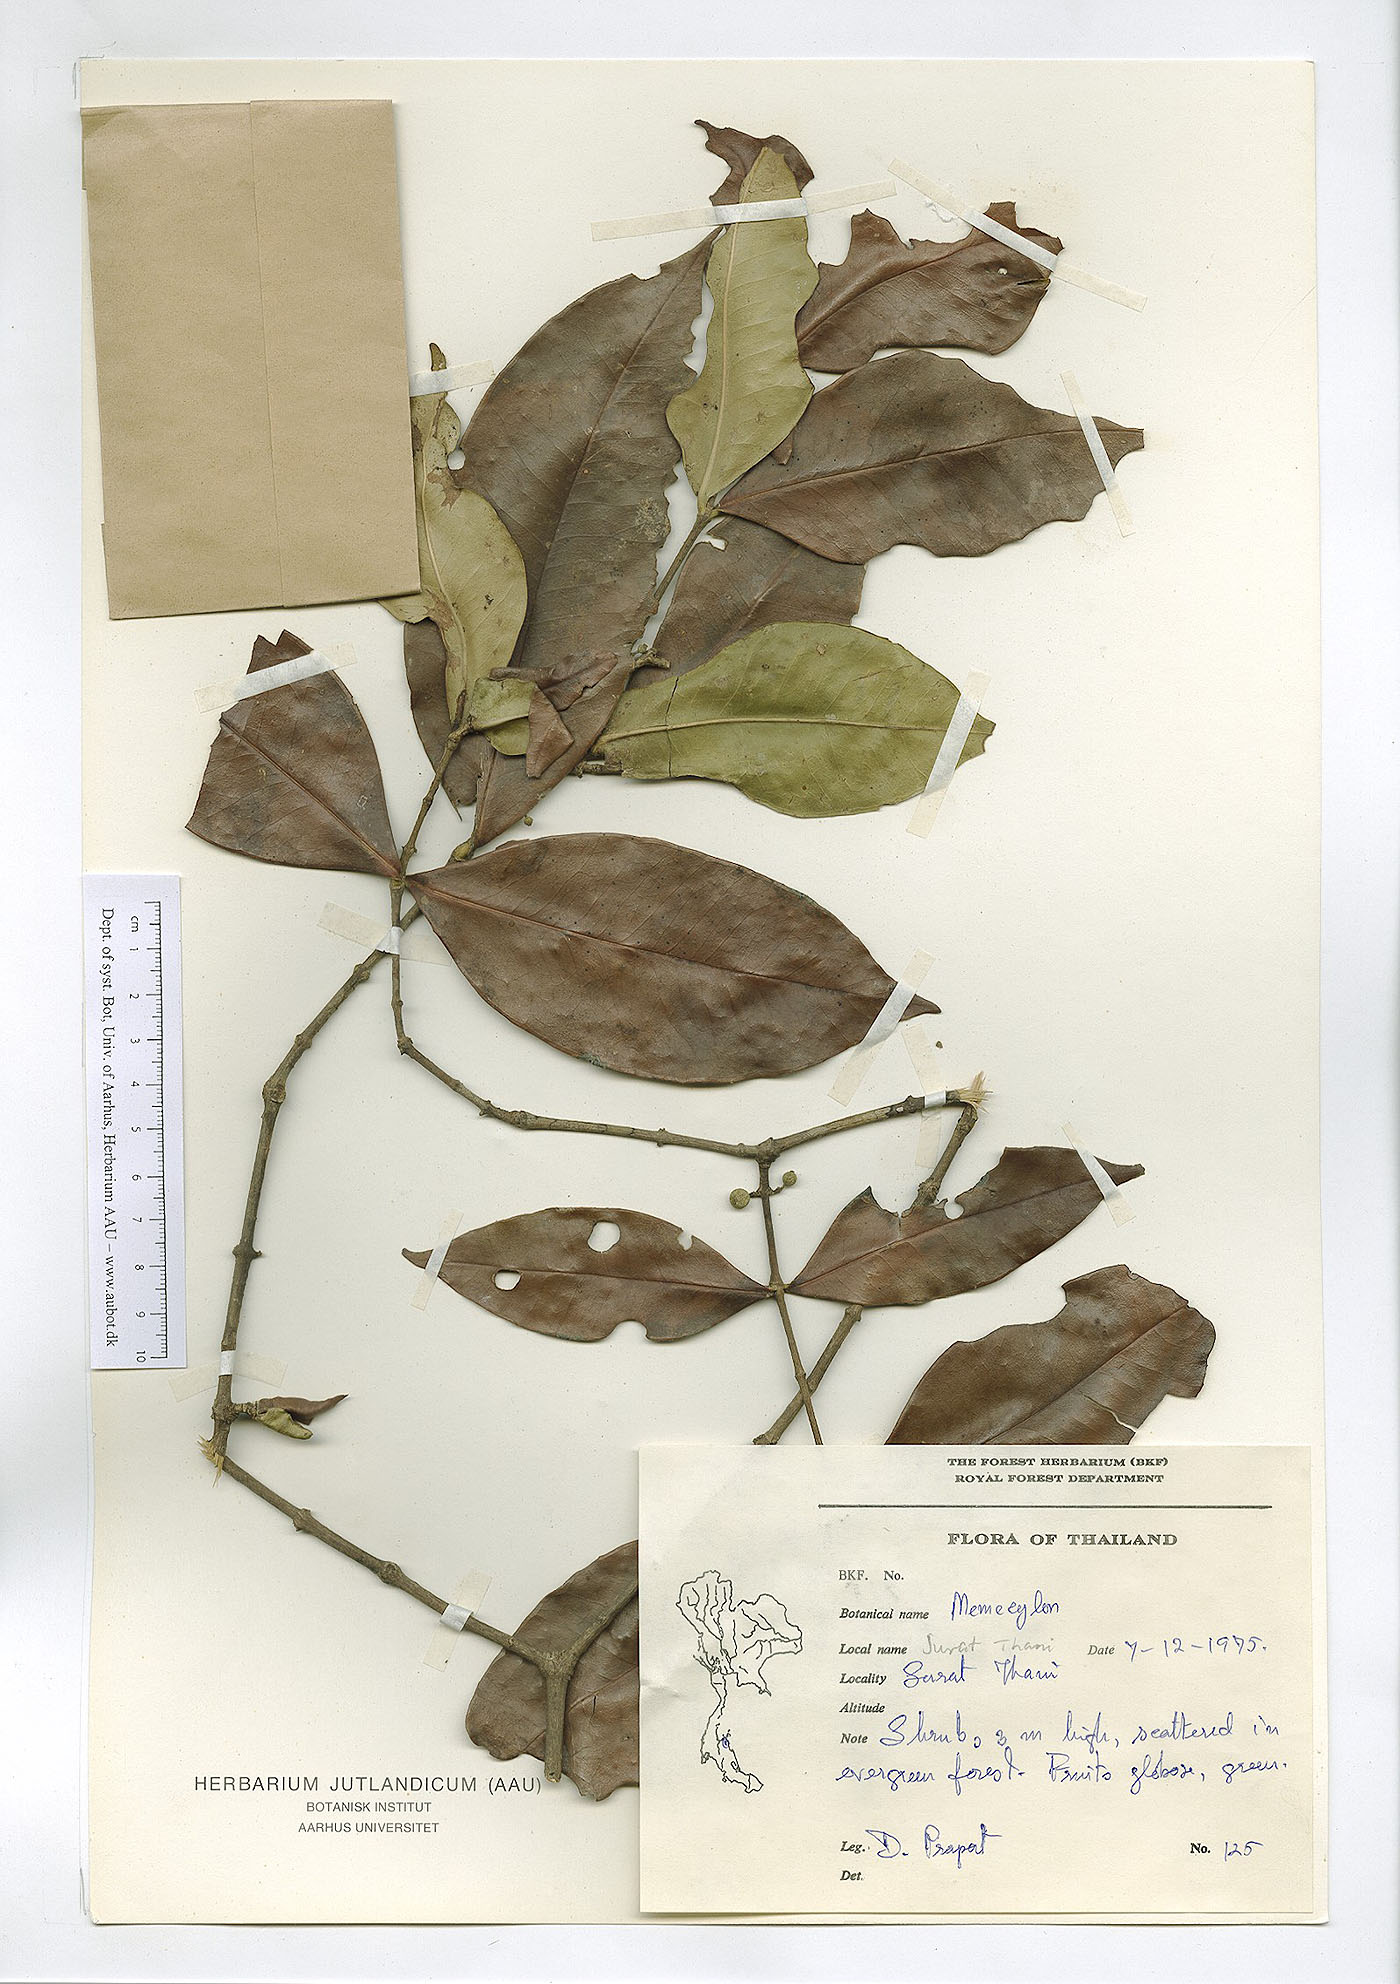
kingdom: Plantae
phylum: Tracheophyta
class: Magnoliopsida
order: Myrtales
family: Melastomataceae
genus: Memecylon
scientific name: Memecylon minutiflorum
